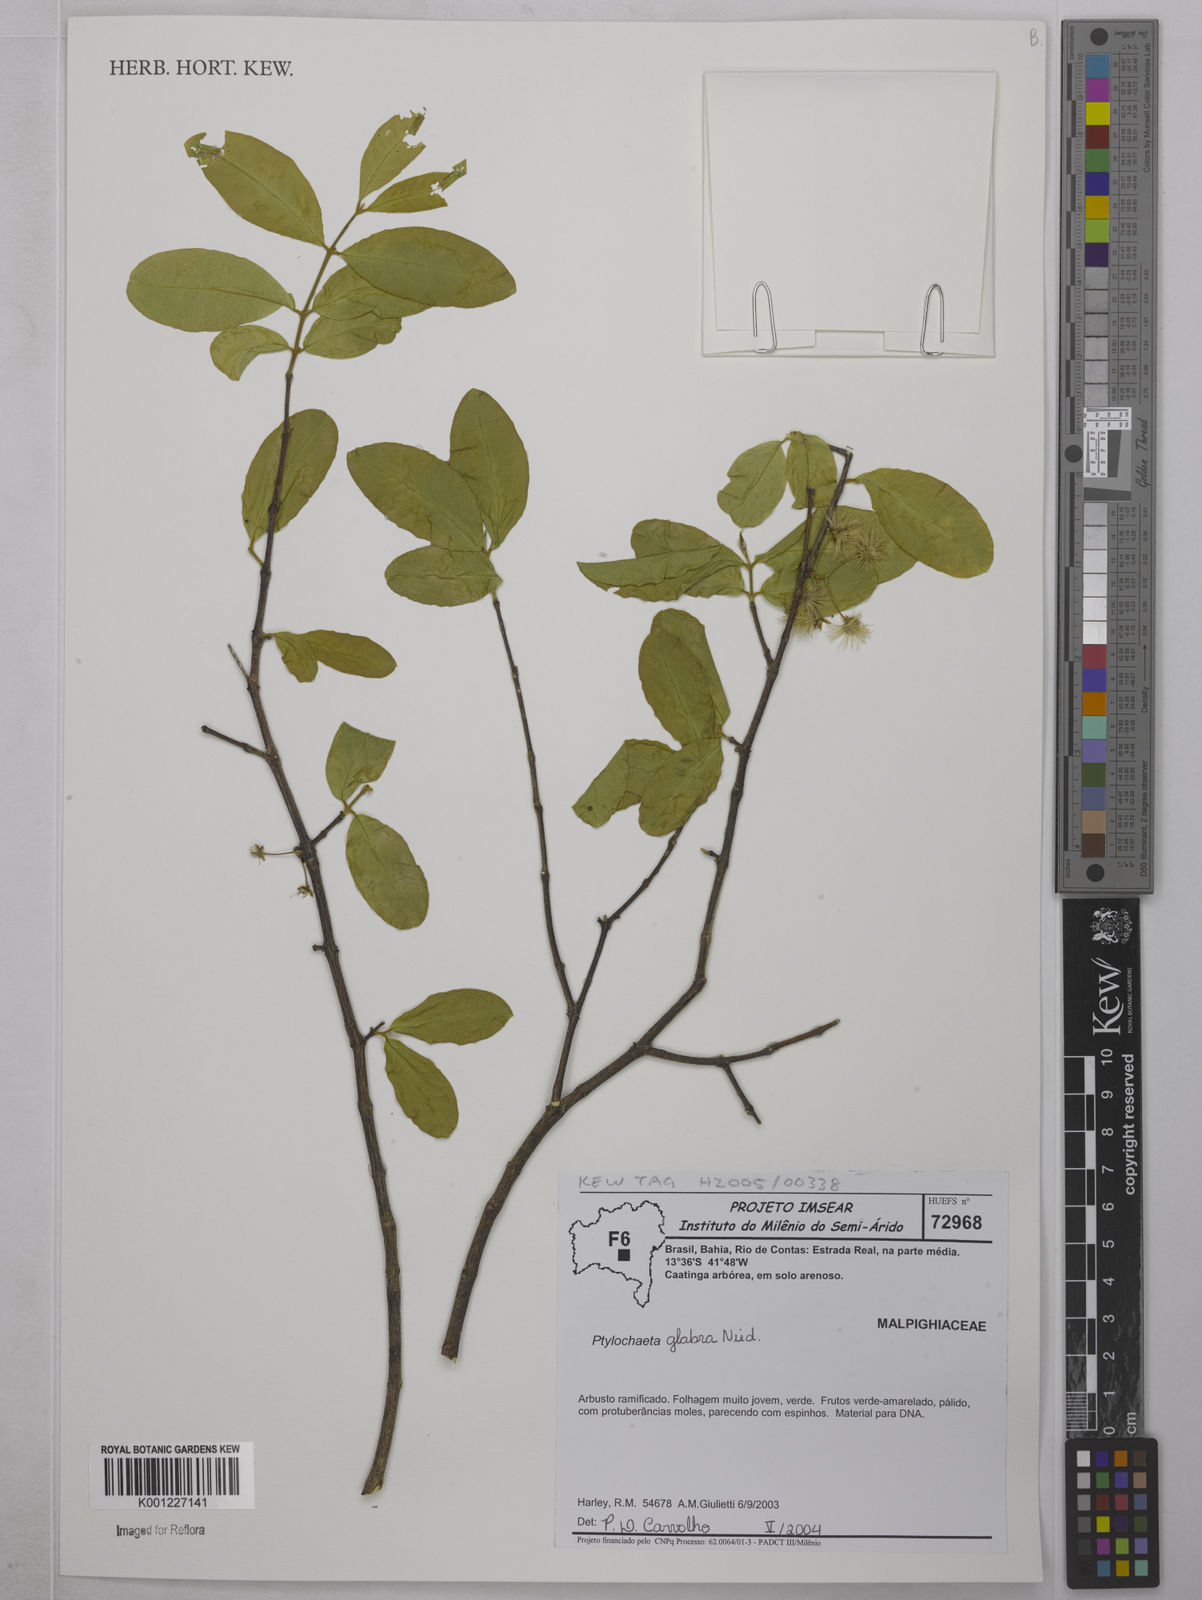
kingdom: Plantae
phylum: Tracheophyta
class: Magnoliopsida
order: Malpighiales
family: Malpighiaceae
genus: Ptilochaeta
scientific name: Ptilochaeta glabra
